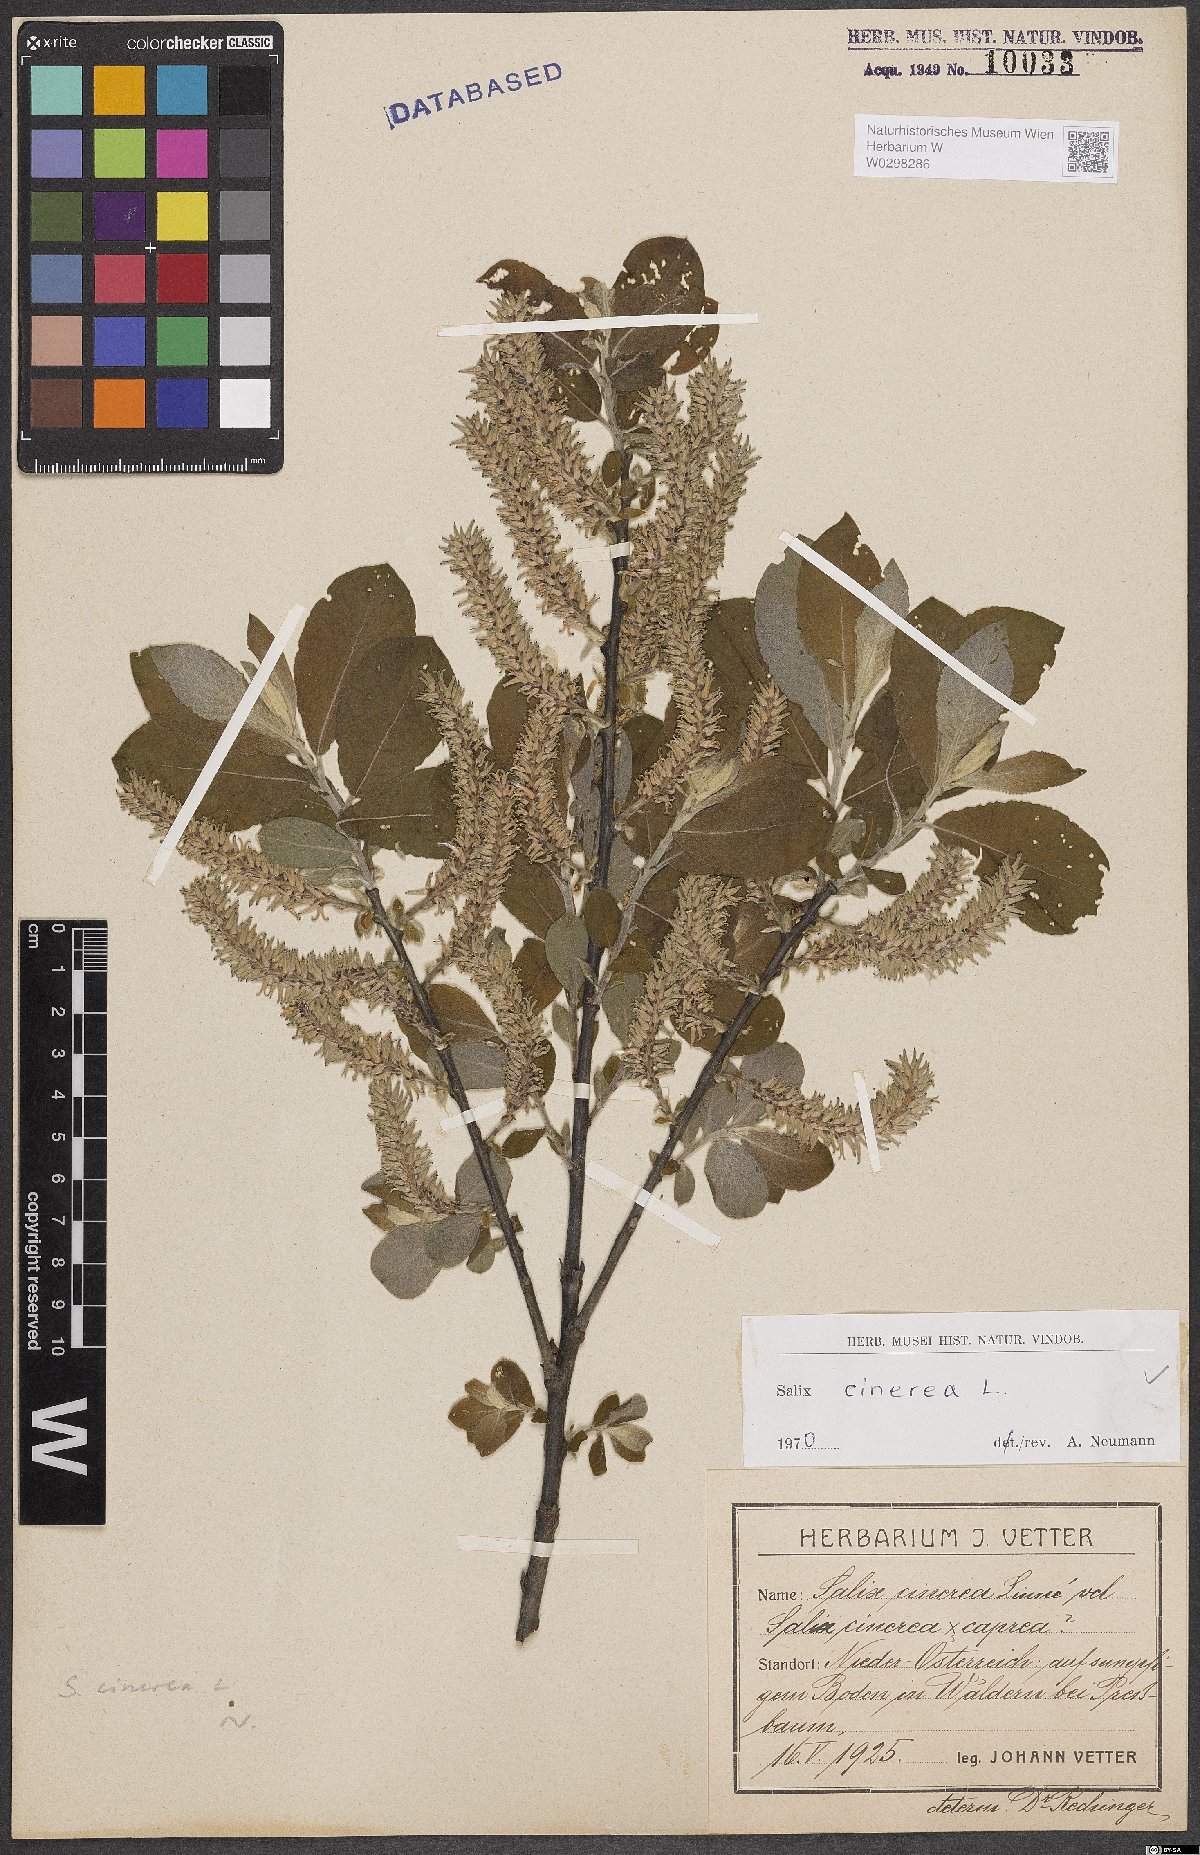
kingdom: Plantae
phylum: Tracheophyta
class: Magnoliopsida
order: Malpighiales
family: Salicaceae
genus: Salix
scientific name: Salix cinerea
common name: Common sallow
